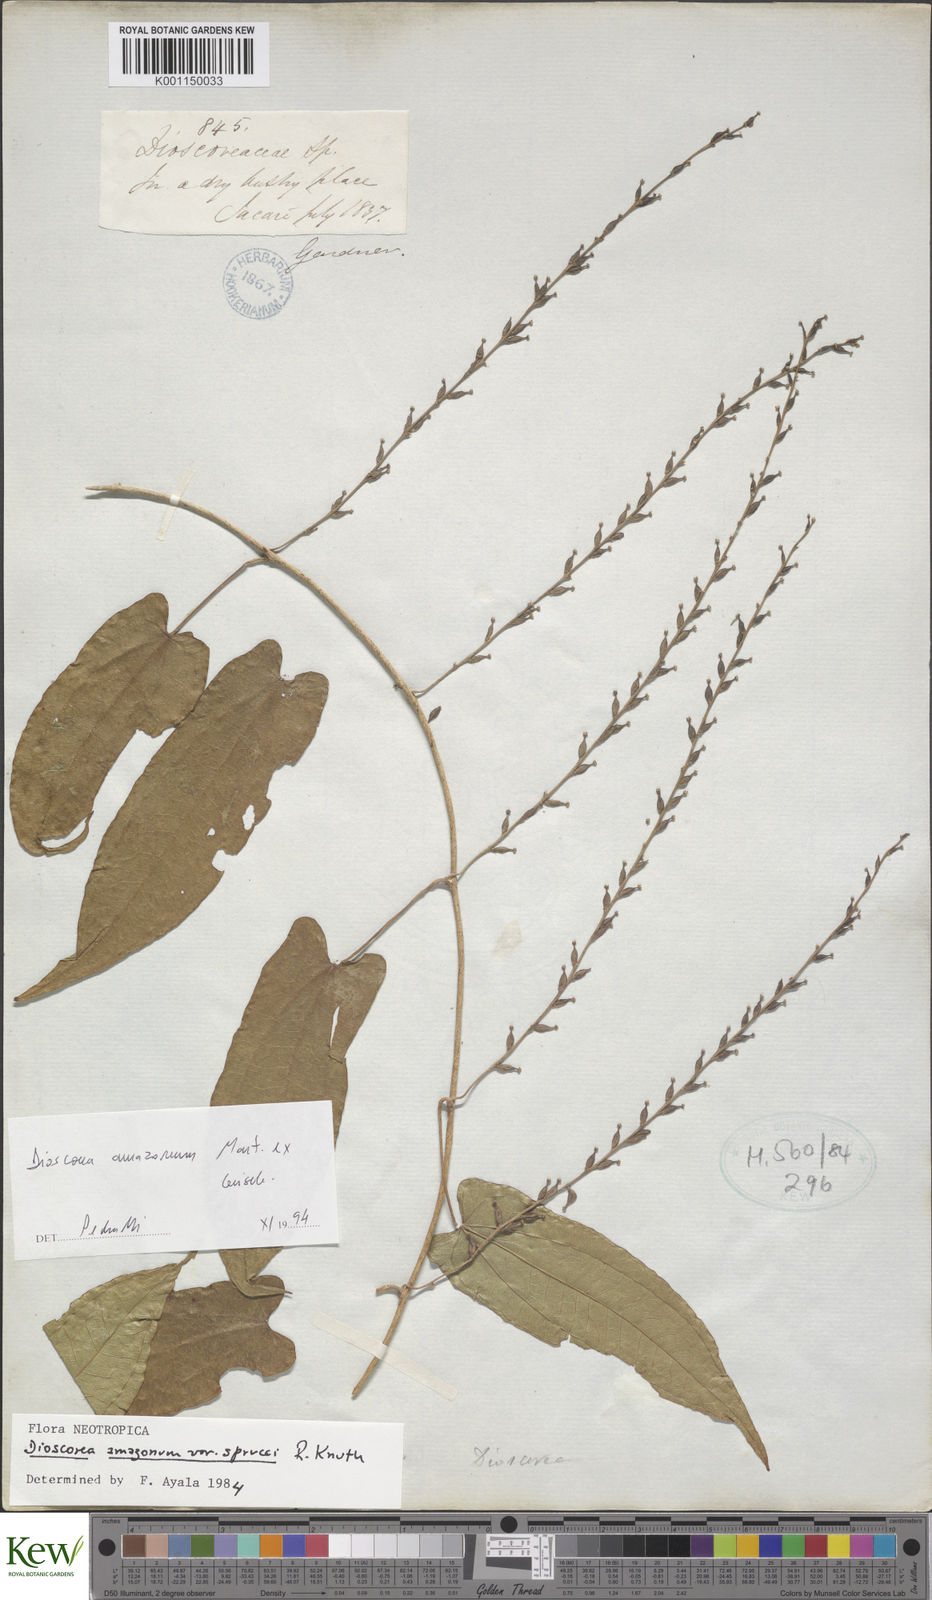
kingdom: Plantae
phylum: Tracheophyta
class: Liliopsida
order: Dioscoreales
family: Dioscoreaceae
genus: Dioscorea
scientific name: Dioscorea amazonum
